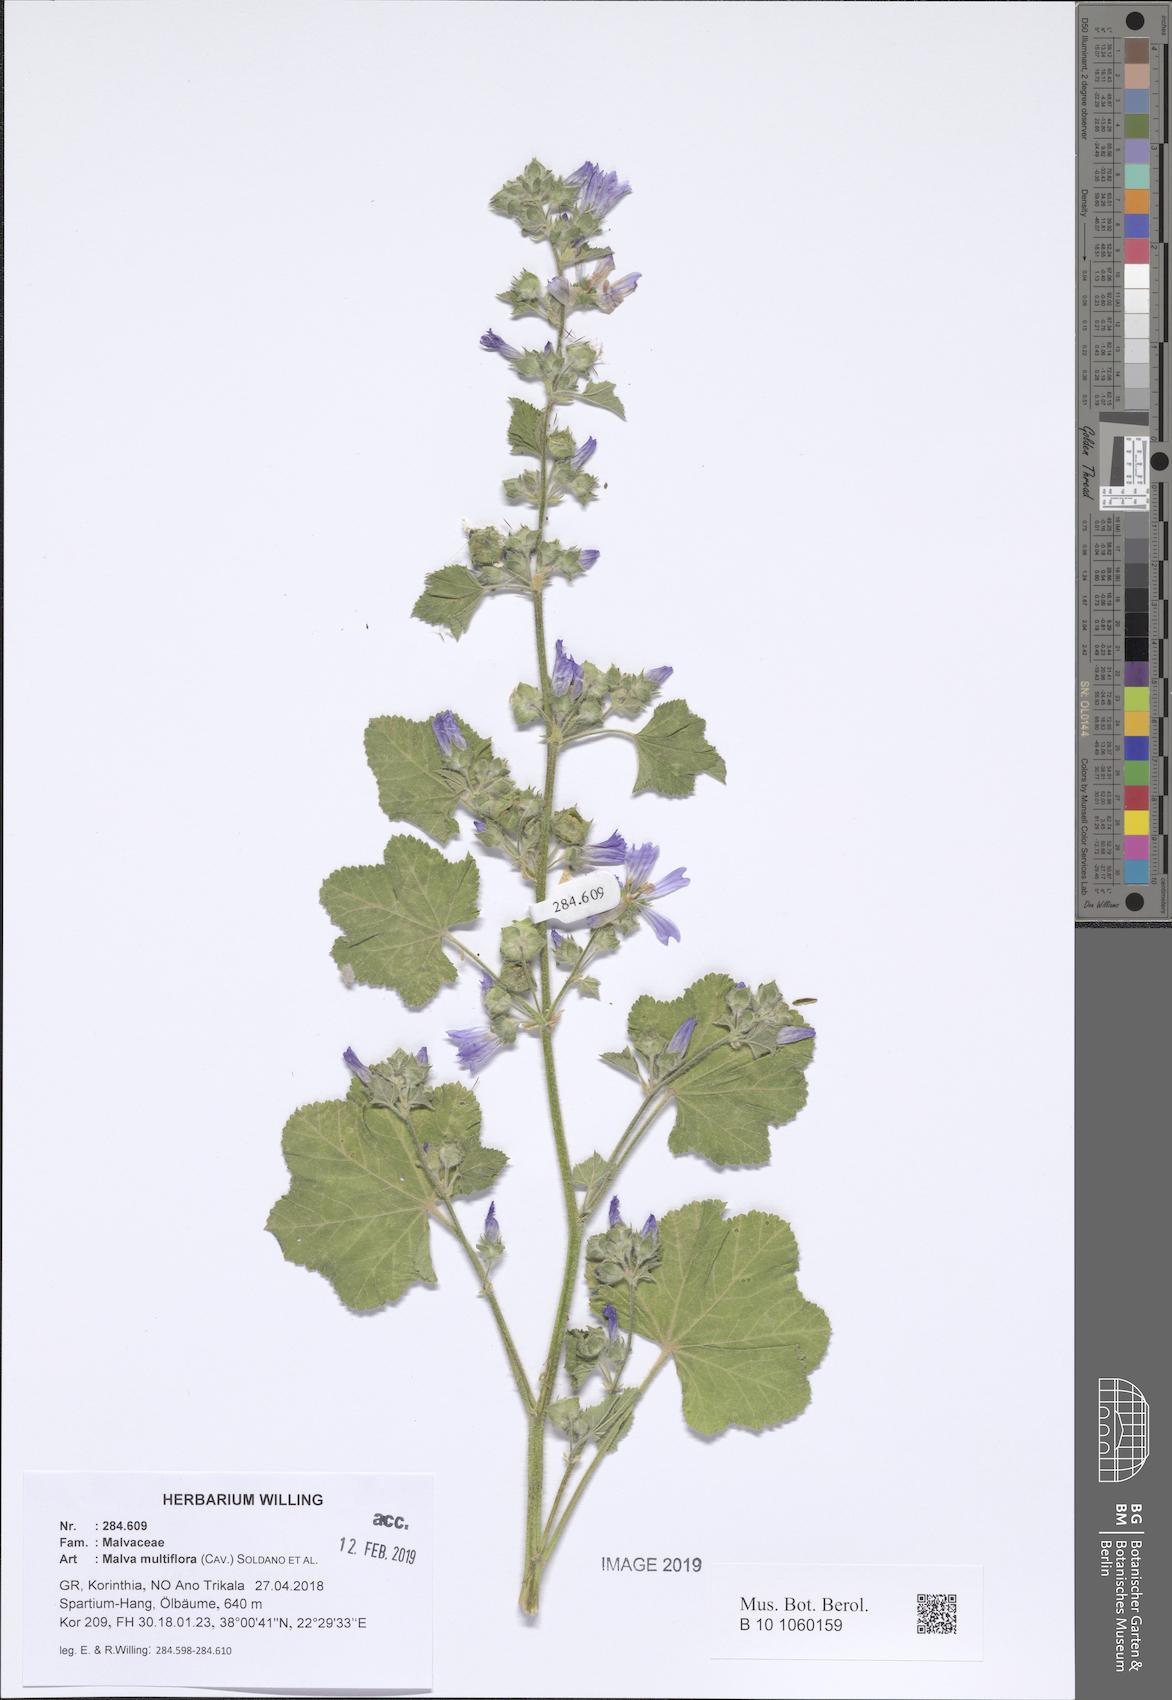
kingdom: Plantae
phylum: Tracheophyta
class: Magnoliopsida
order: Malvales
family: Malvaceae
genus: Malva
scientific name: Malva multiflora
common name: Cheeseweed
